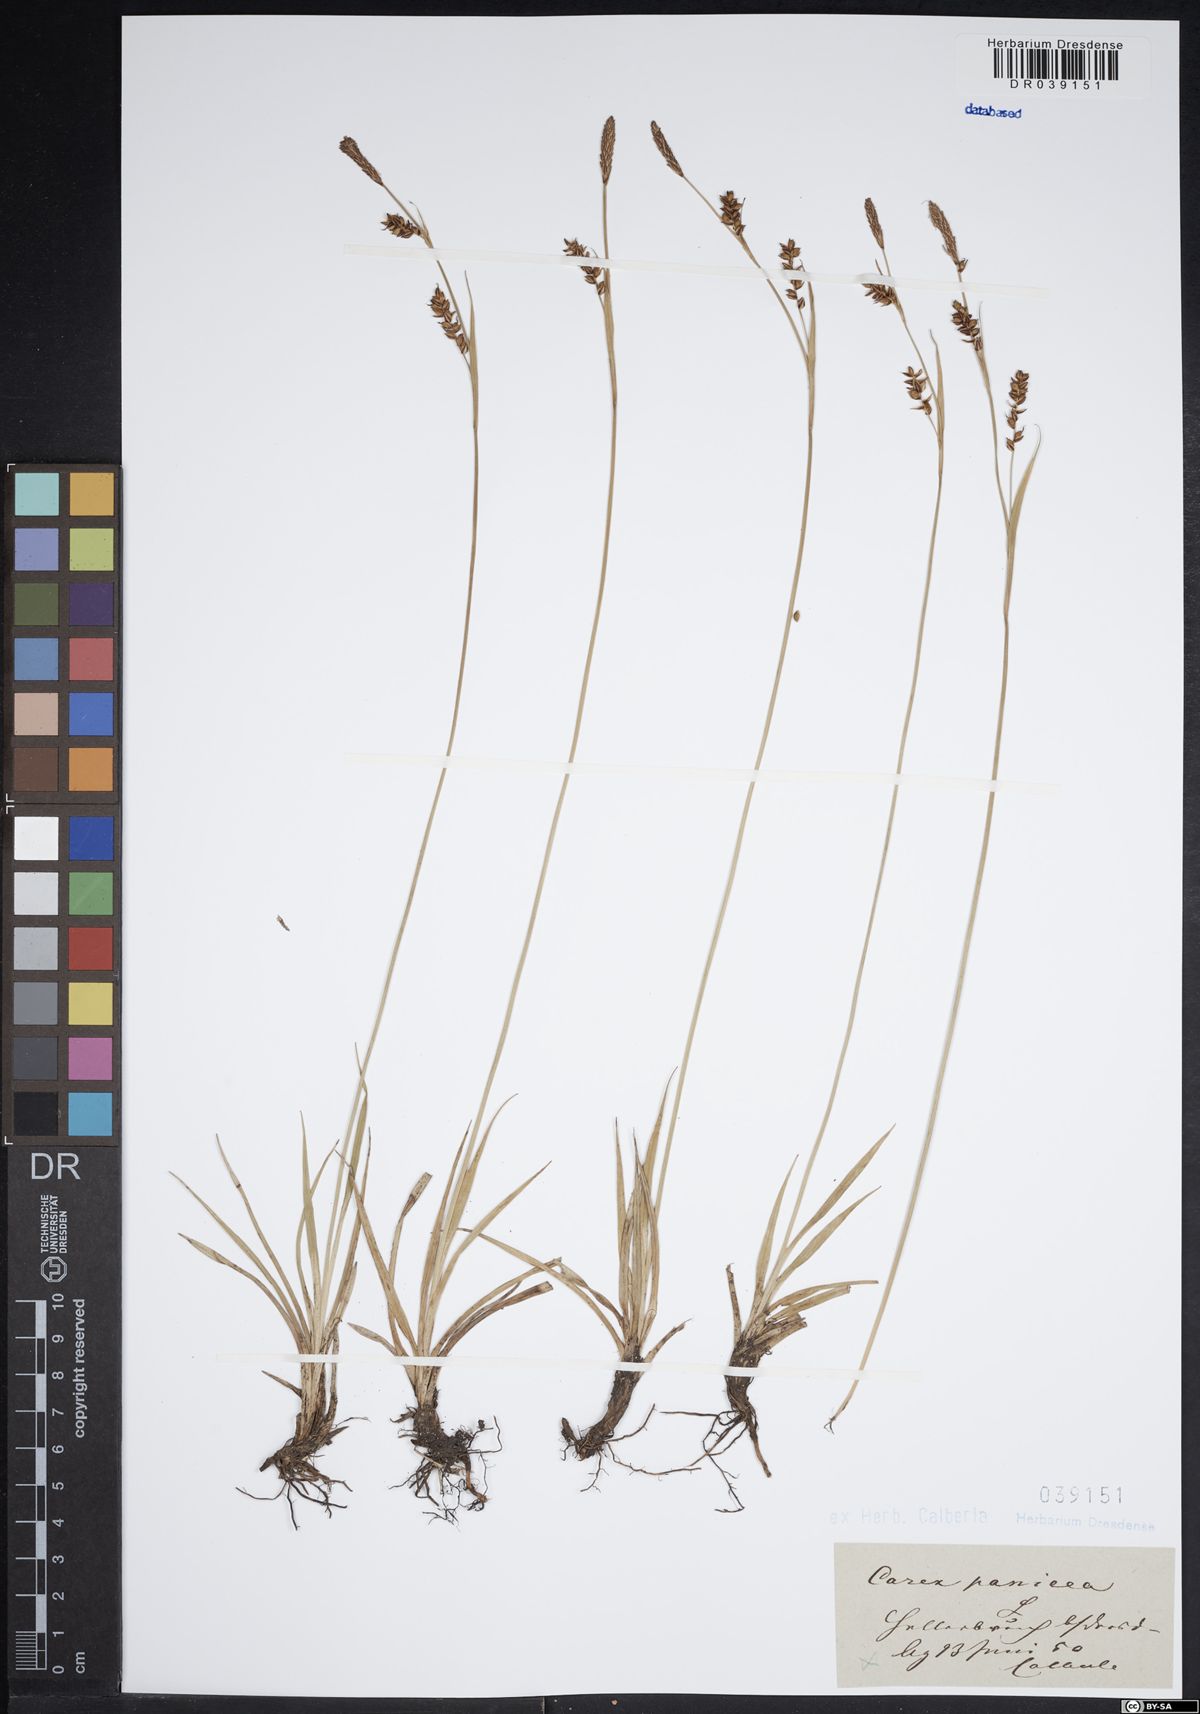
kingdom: Plantae
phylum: Tracheophyta
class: Liliopsida
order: Poales
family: Cyperaceae
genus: Carex
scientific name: Carex panicea
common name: Carnation sedge
